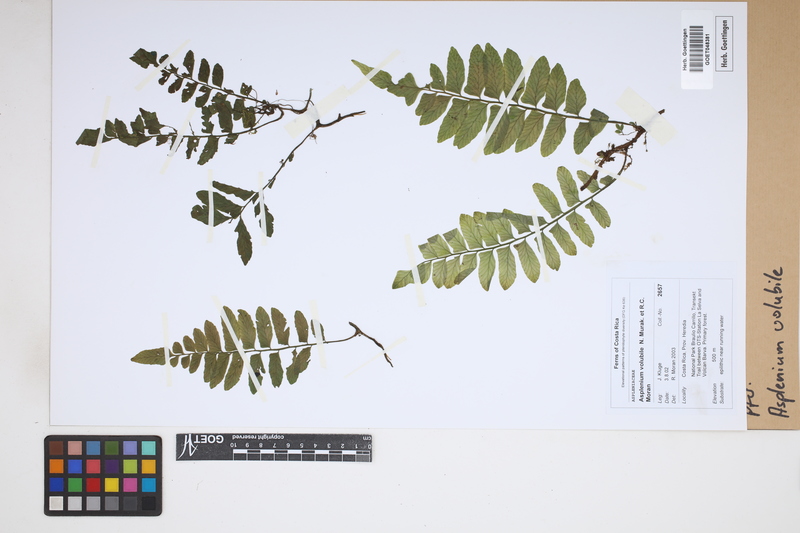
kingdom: Plantae
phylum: Tracheophyta
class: Polypodiopsida
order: Polypodiales
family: Aspleniaceae
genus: Hymenasplenium
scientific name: Hymenasplenium volubile
